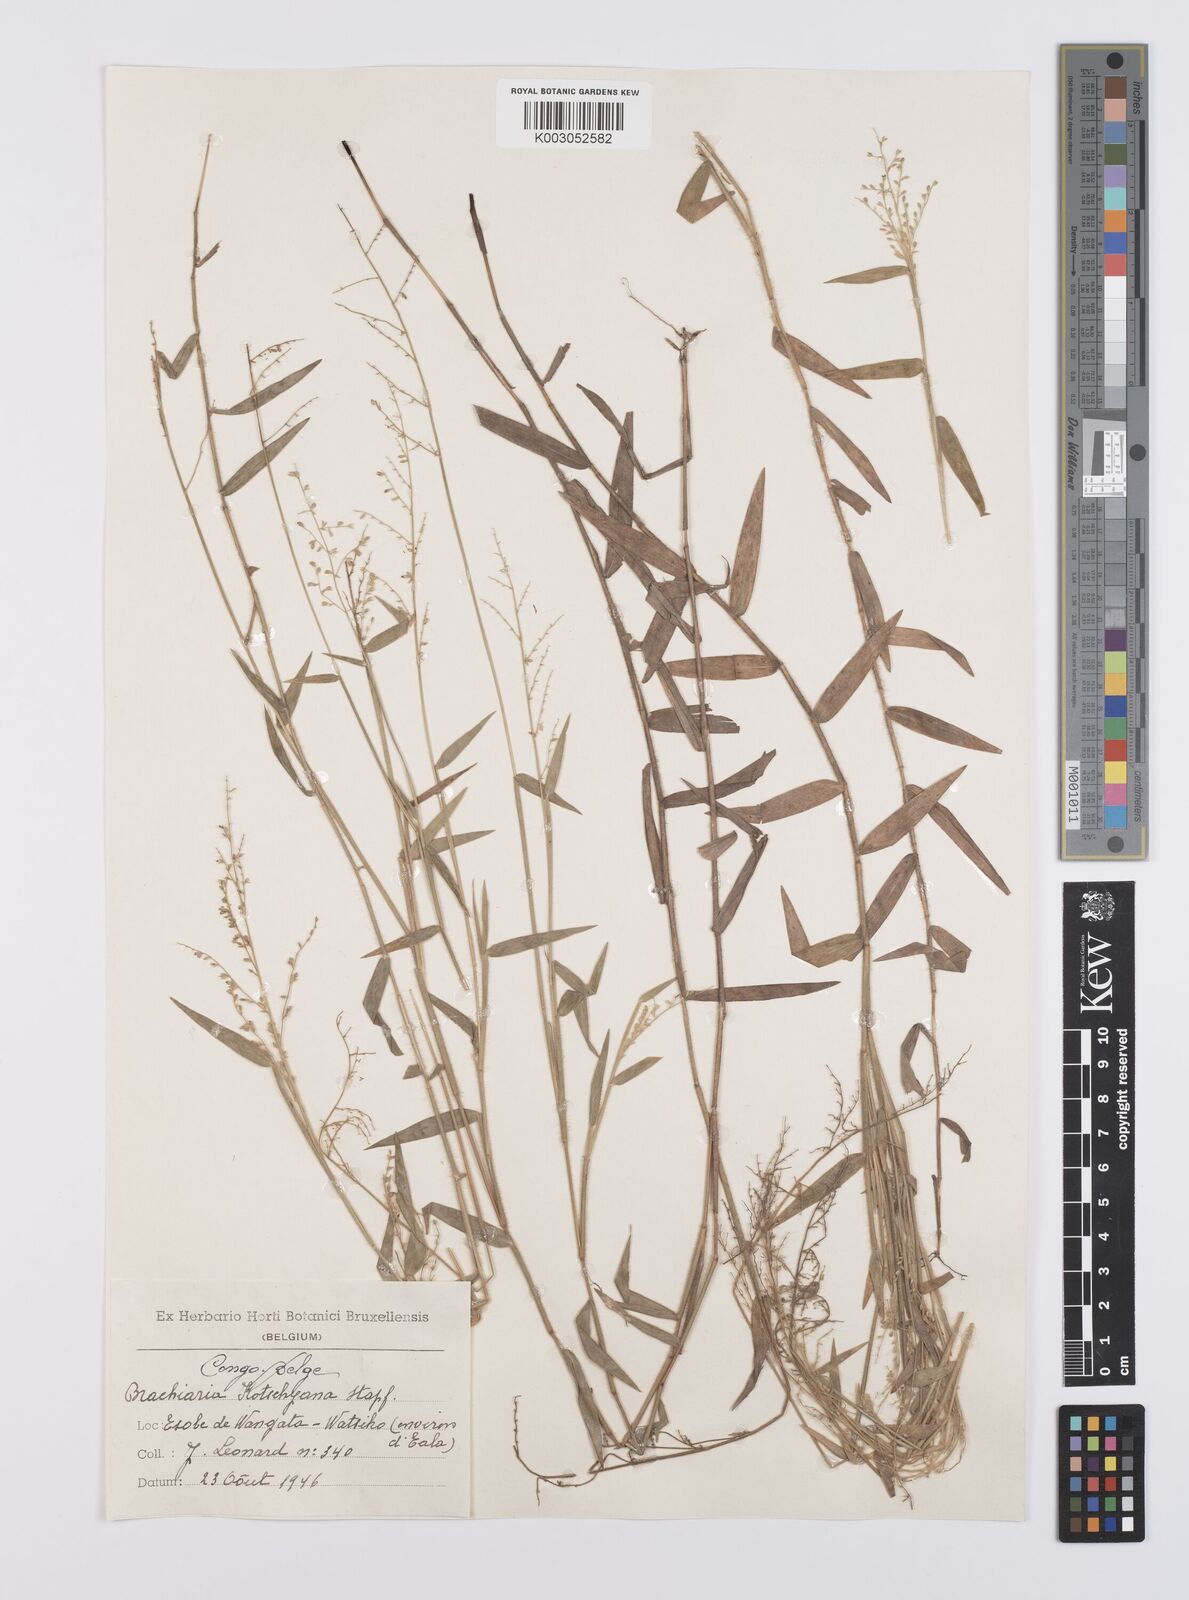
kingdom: Plantae
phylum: Tracheophyta
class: Liliopsida
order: Poales
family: Poaceae
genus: Urochloa
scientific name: Urochloa comata
